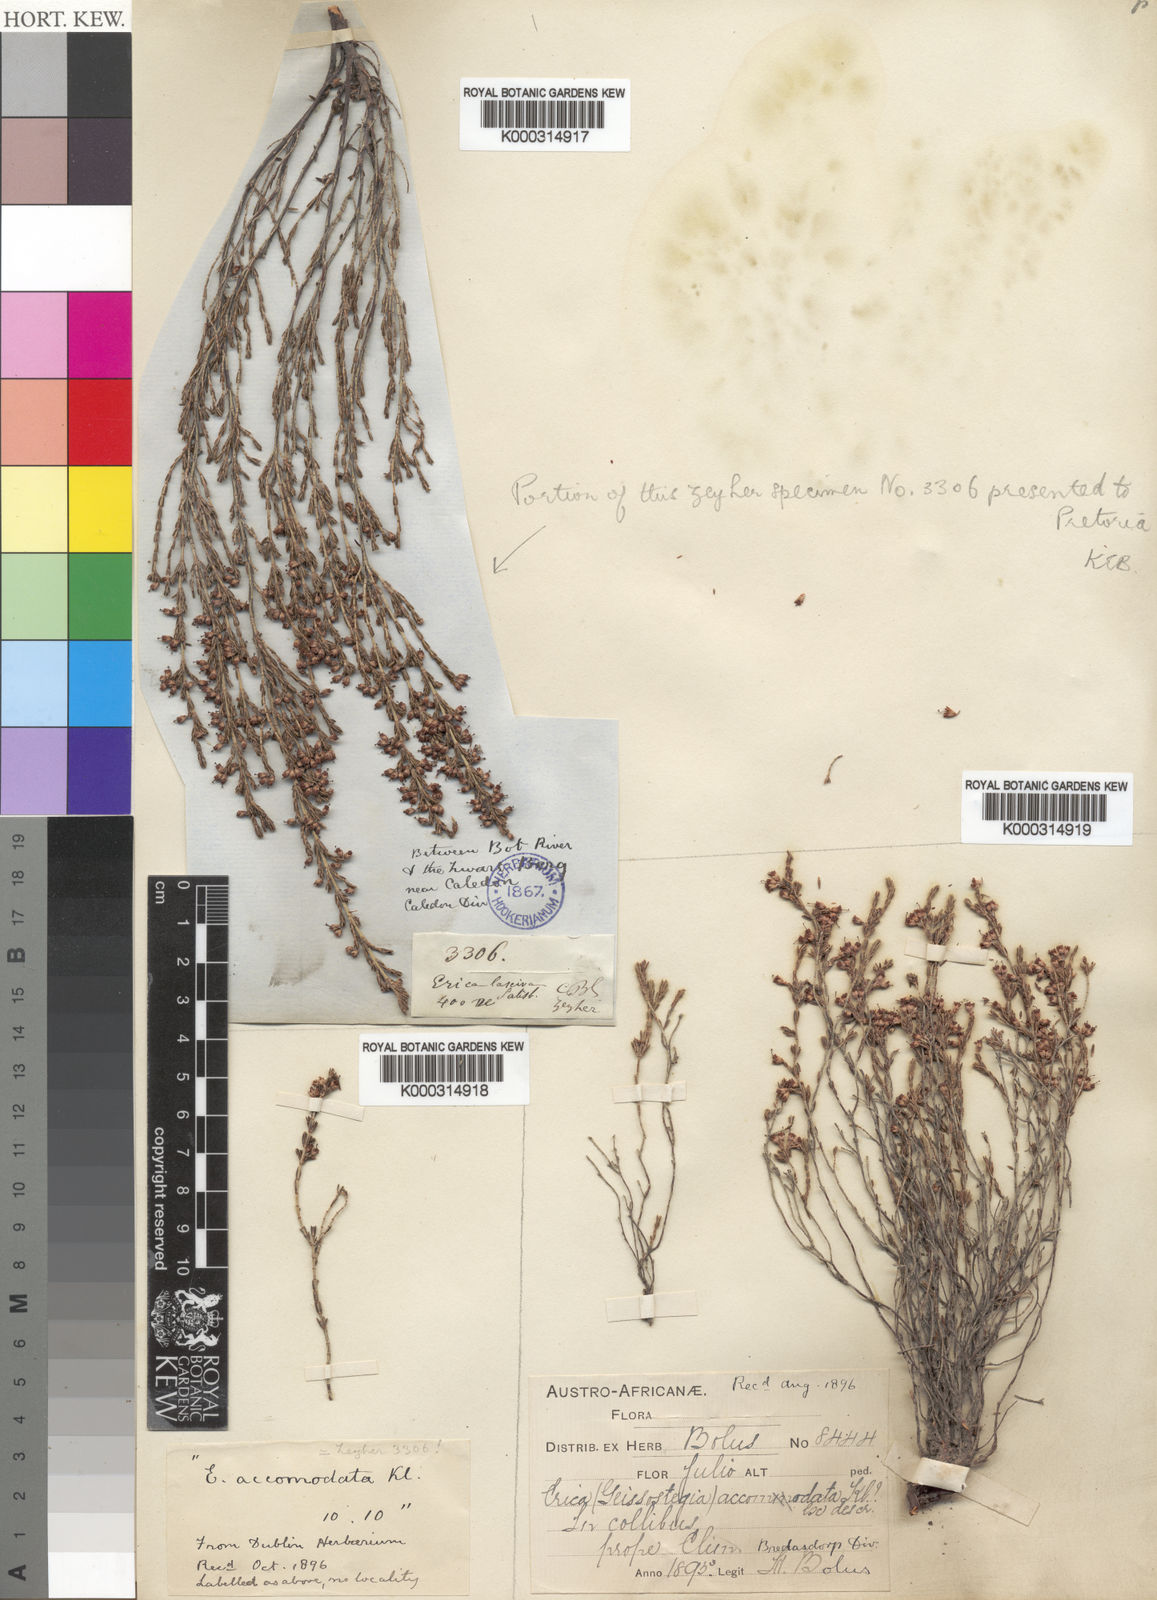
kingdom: Plantae
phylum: Tracheophyta
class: Magnoliopsida
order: Ericales
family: Ericaceae
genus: Erica
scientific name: Erica accommodata
